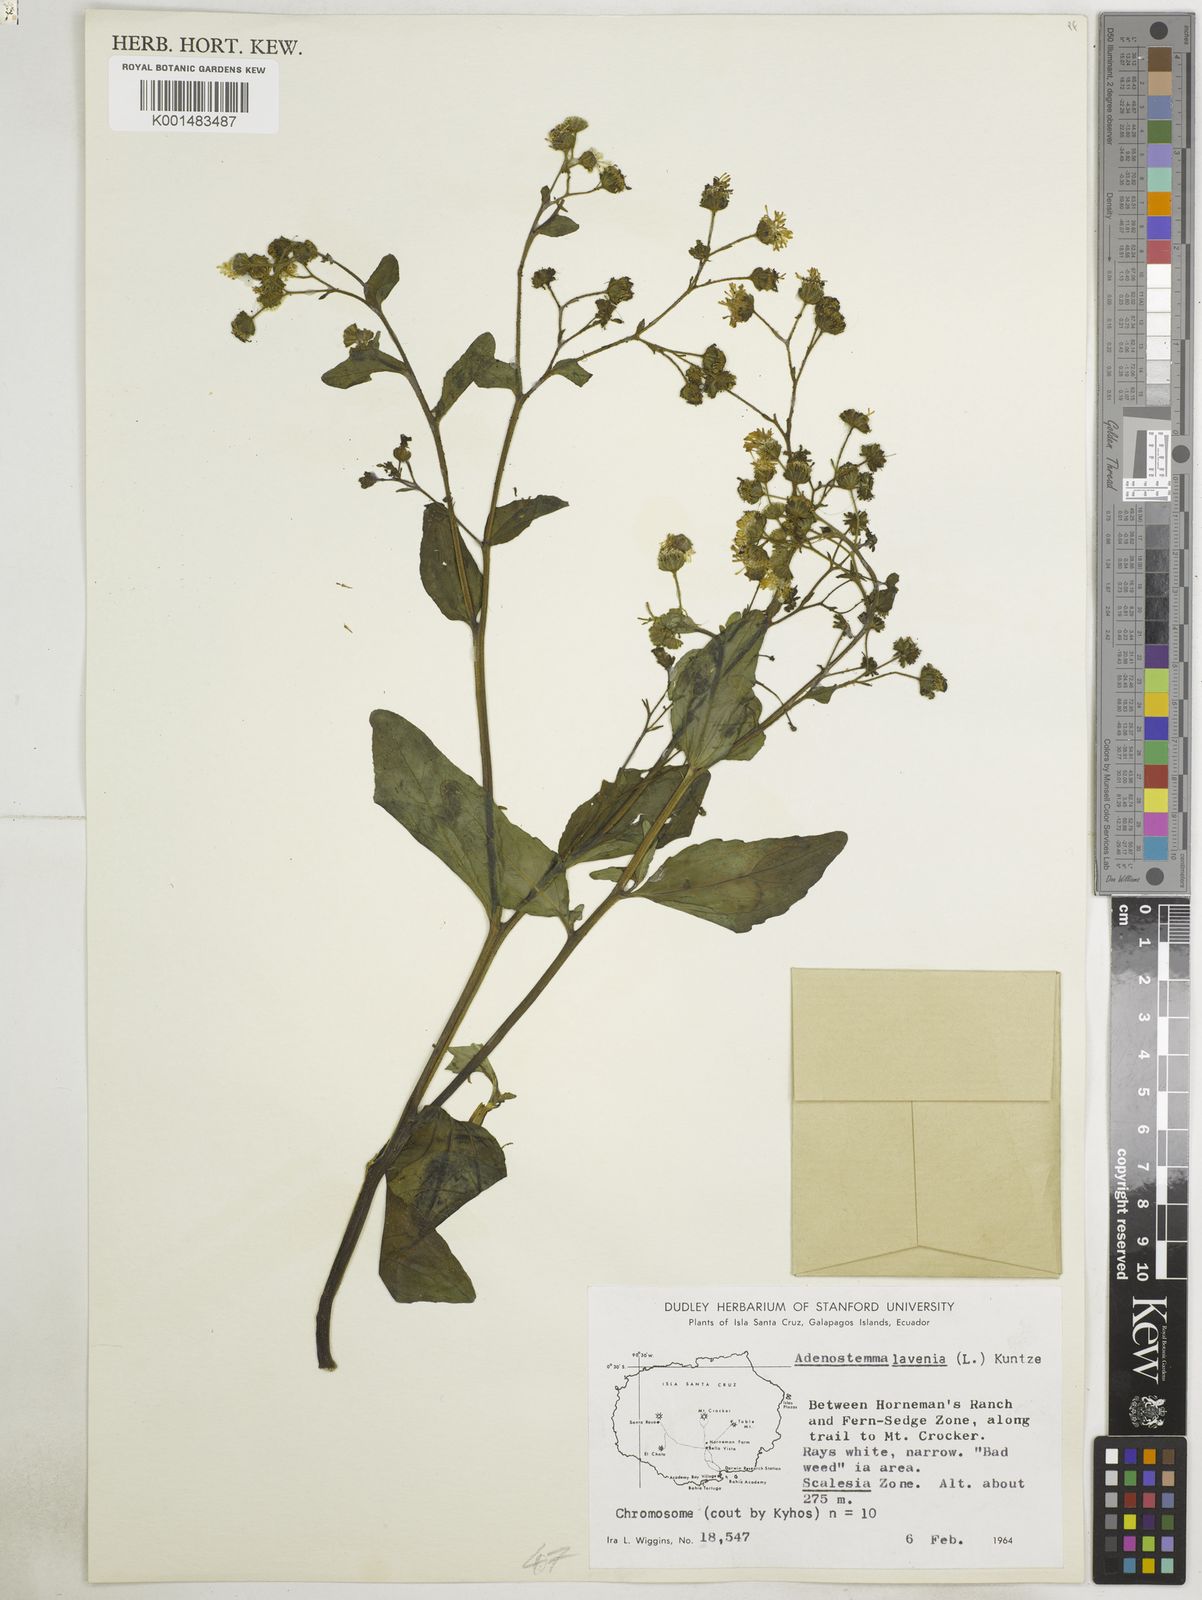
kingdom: Plantae
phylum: Tracheophyta
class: Magnoliopsida
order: Asterales
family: Asteraceae
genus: Adenostemma
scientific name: Adenostemma lavenia
